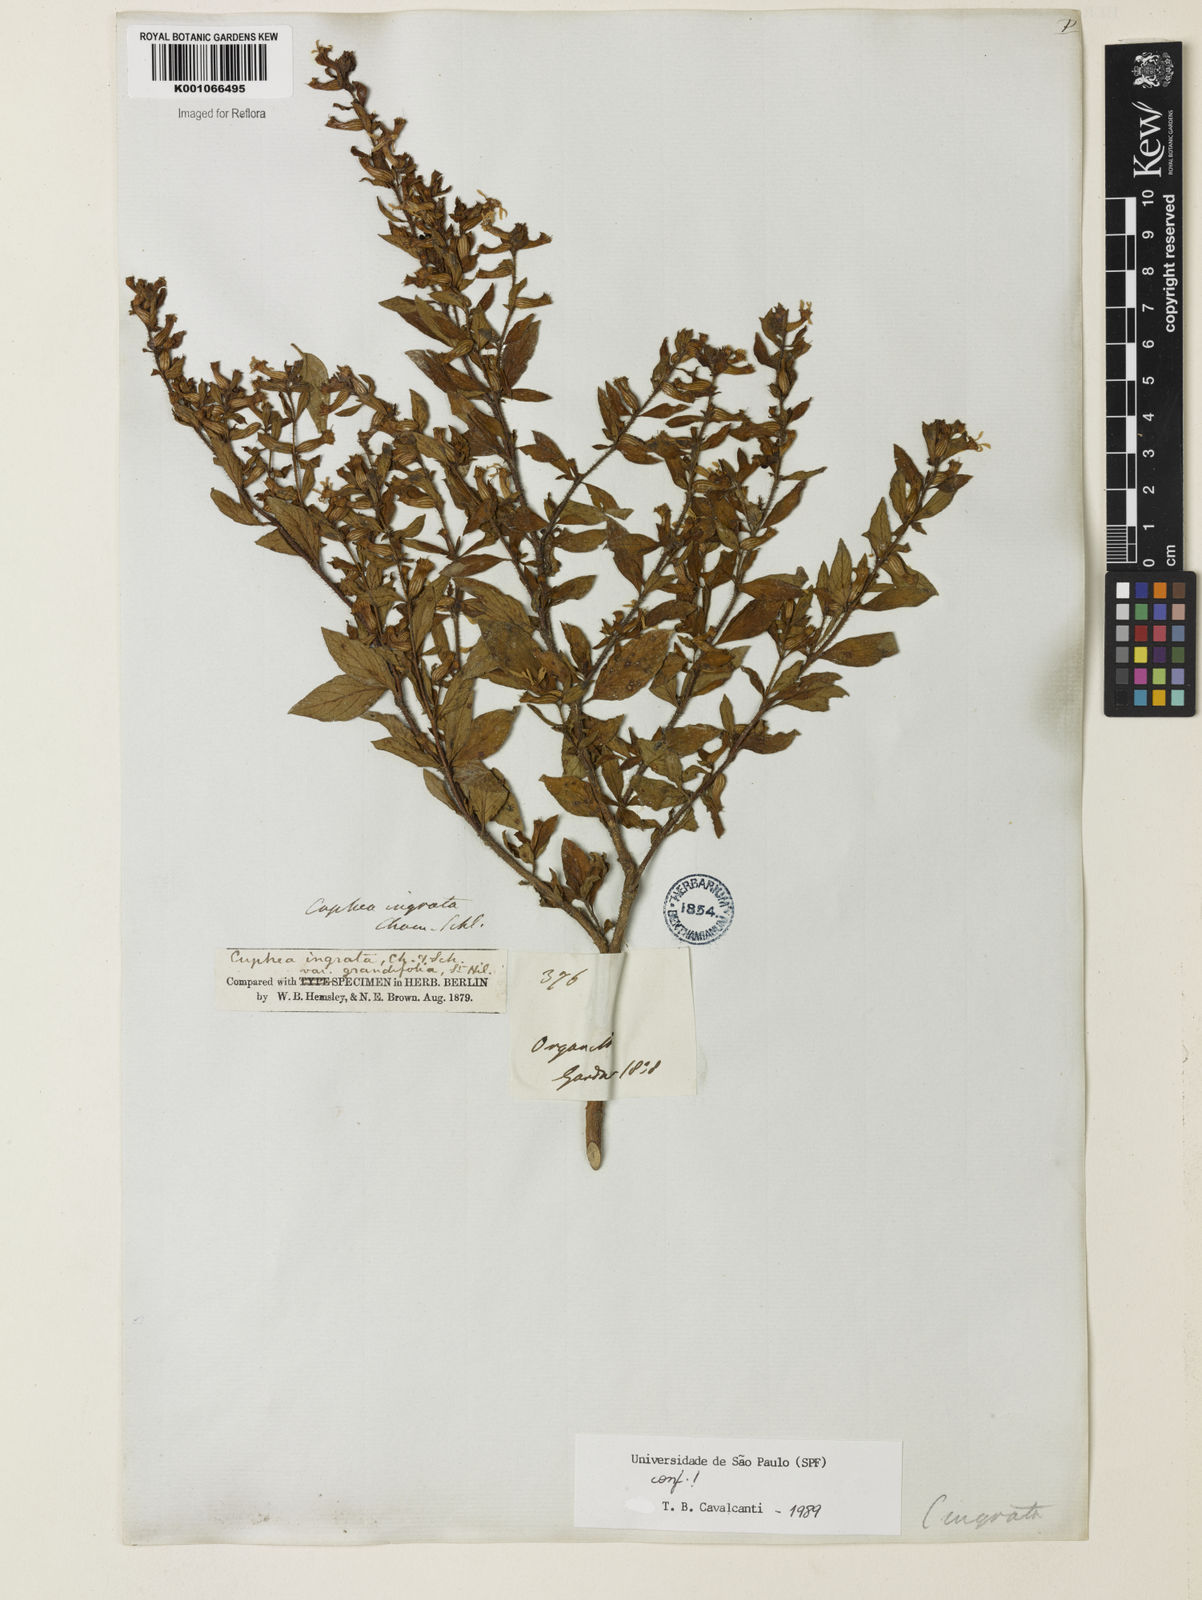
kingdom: Plantae
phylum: Tracheophyta
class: Magnoliopsida
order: Myrtales
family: Lythraceae
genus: Cuphea
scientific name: Cuphea ingrata
